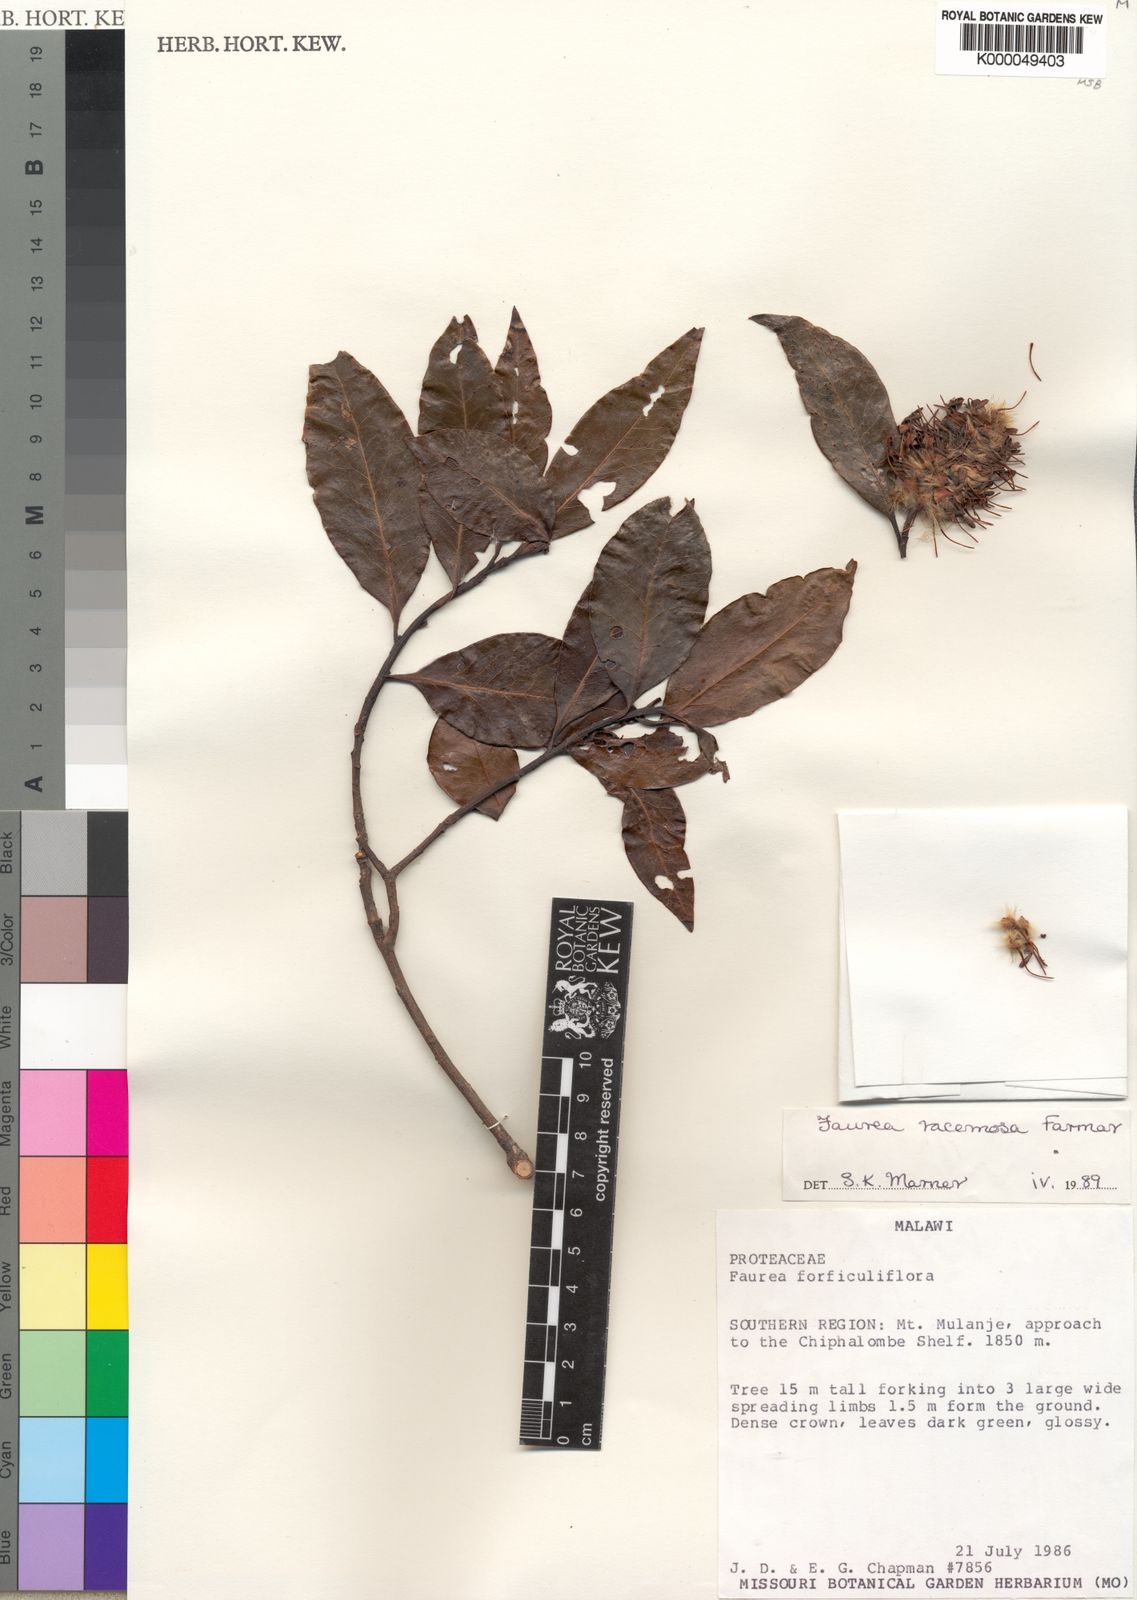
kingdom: Plantae
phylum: Tracheophyta
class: Magnoliopsida
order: Proteales
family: Proteaceae
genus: Faurea
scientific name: Faurea racemosa
